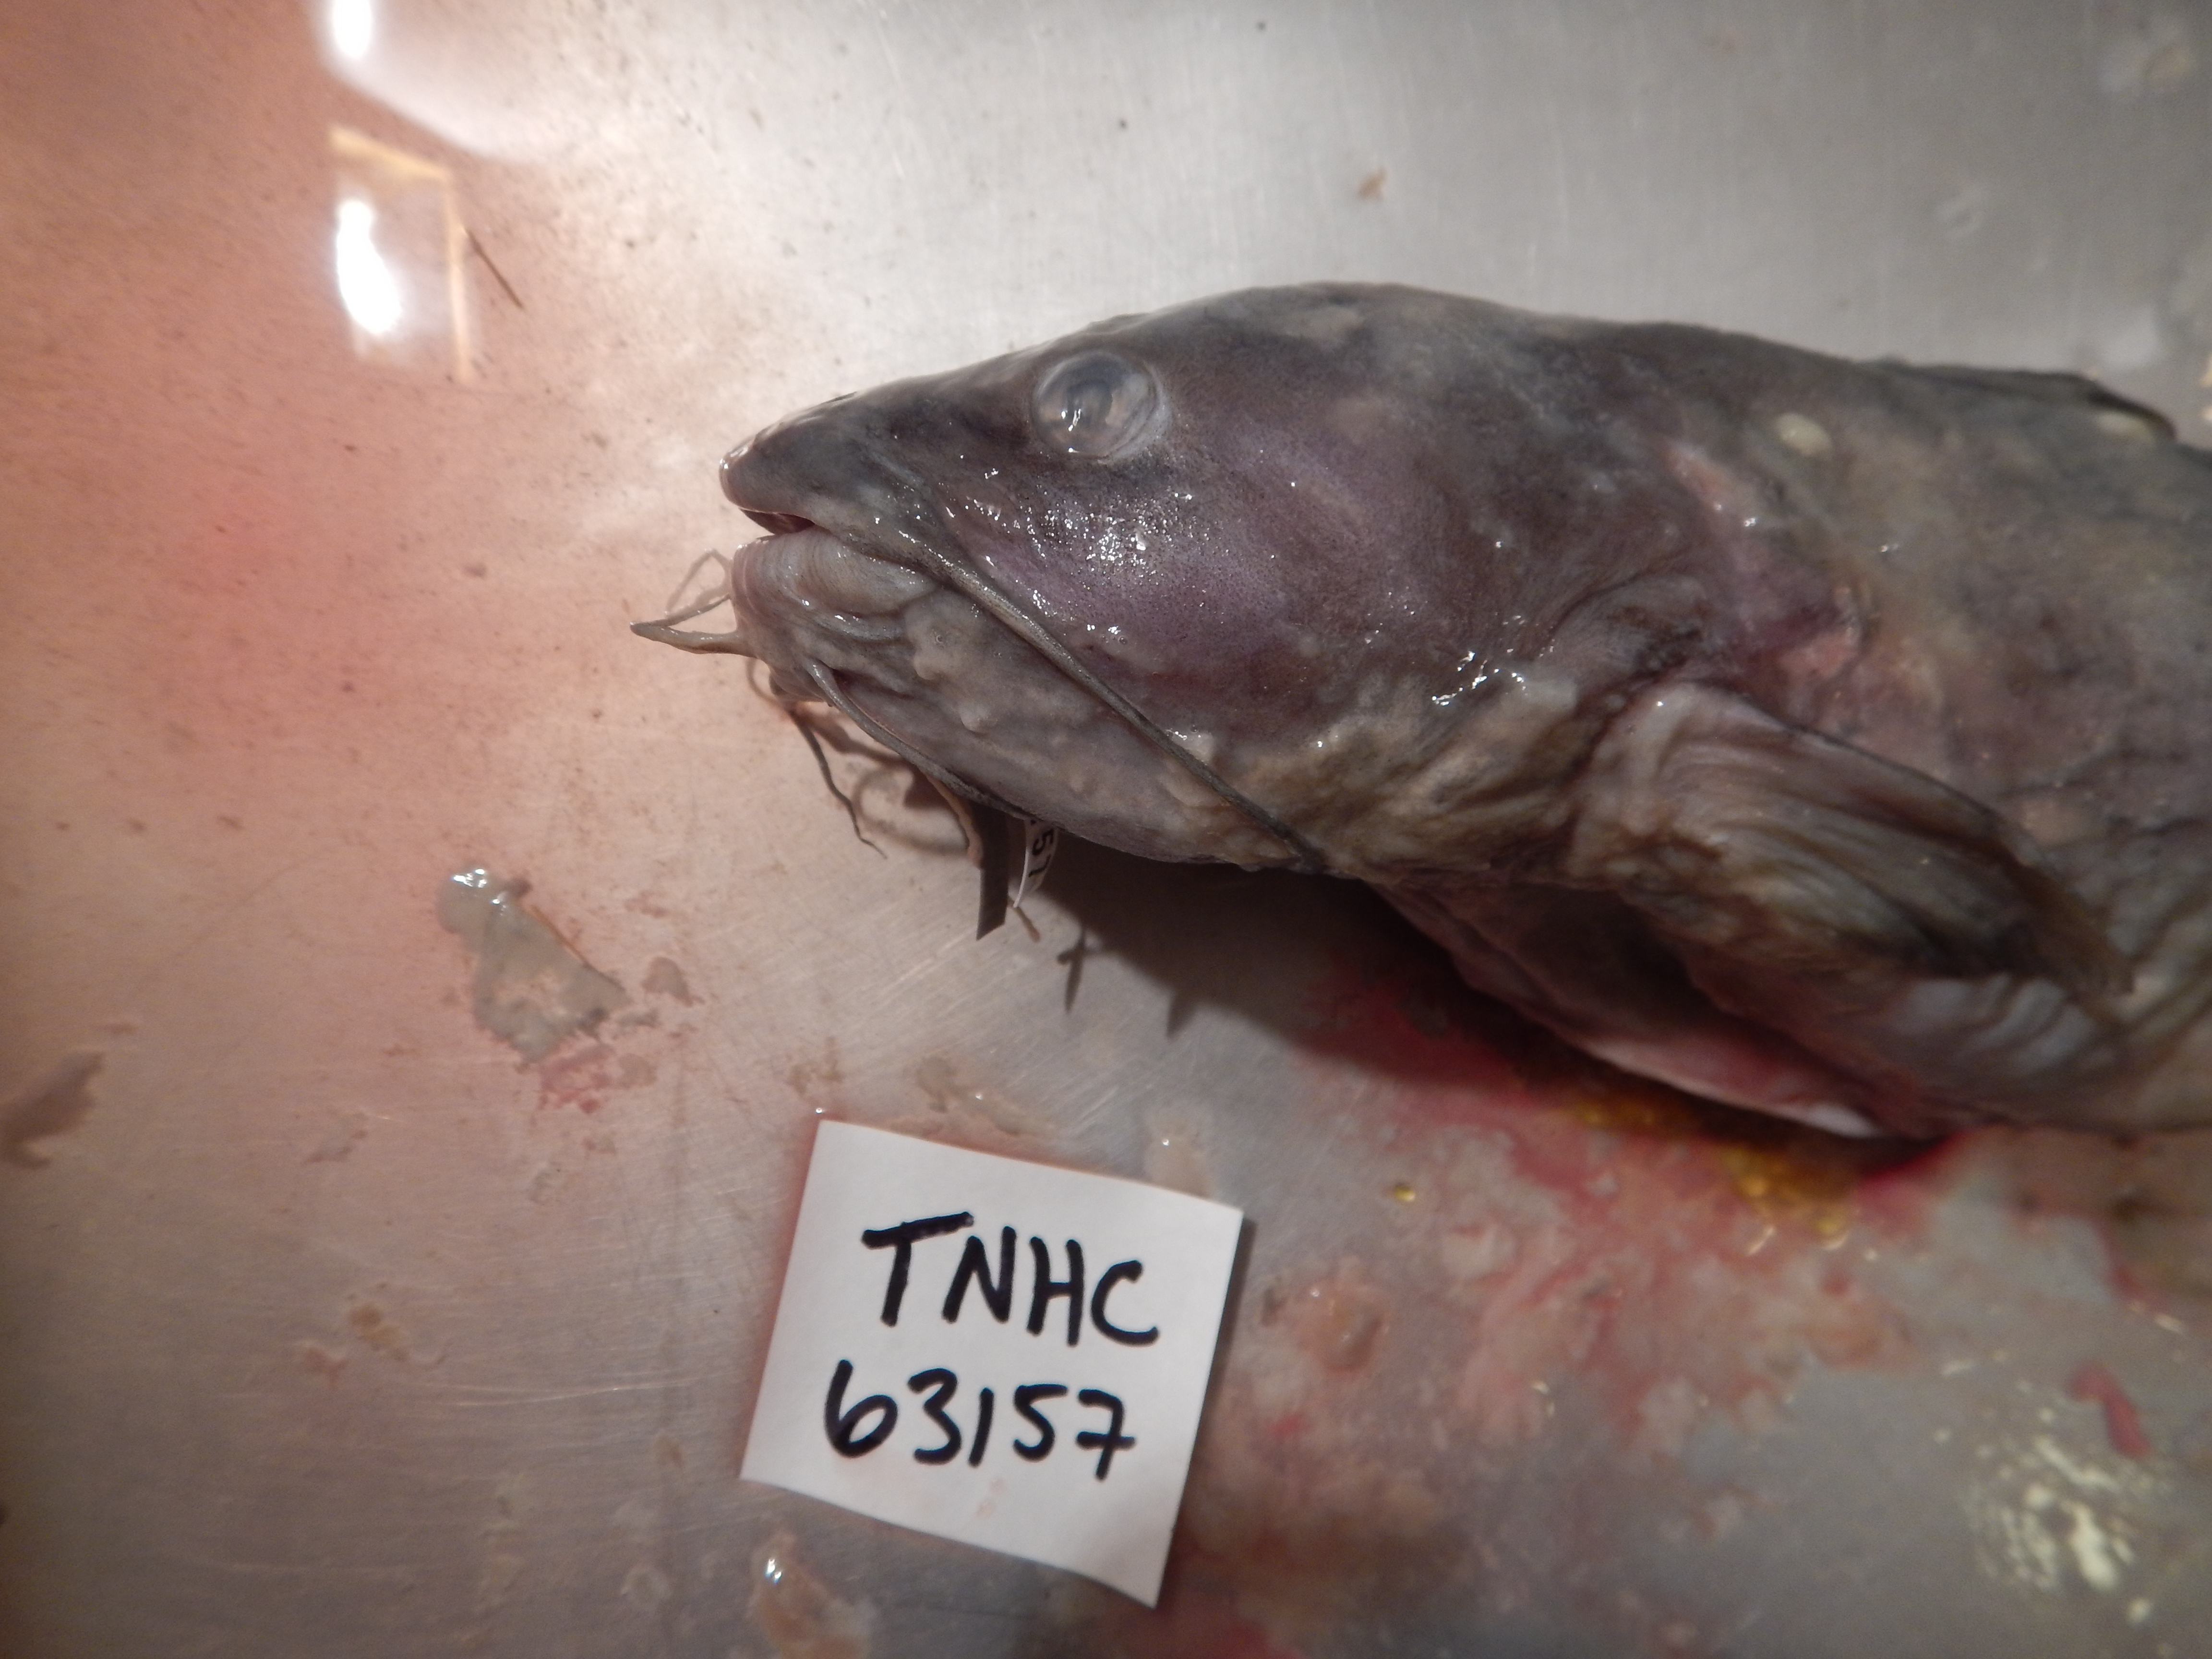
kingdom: Animalia
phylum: Chordata
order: Siluriformes
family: Ictaluridae
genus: Ictalurus
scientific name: Ictalurus pricei
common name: Yaqui catfish
